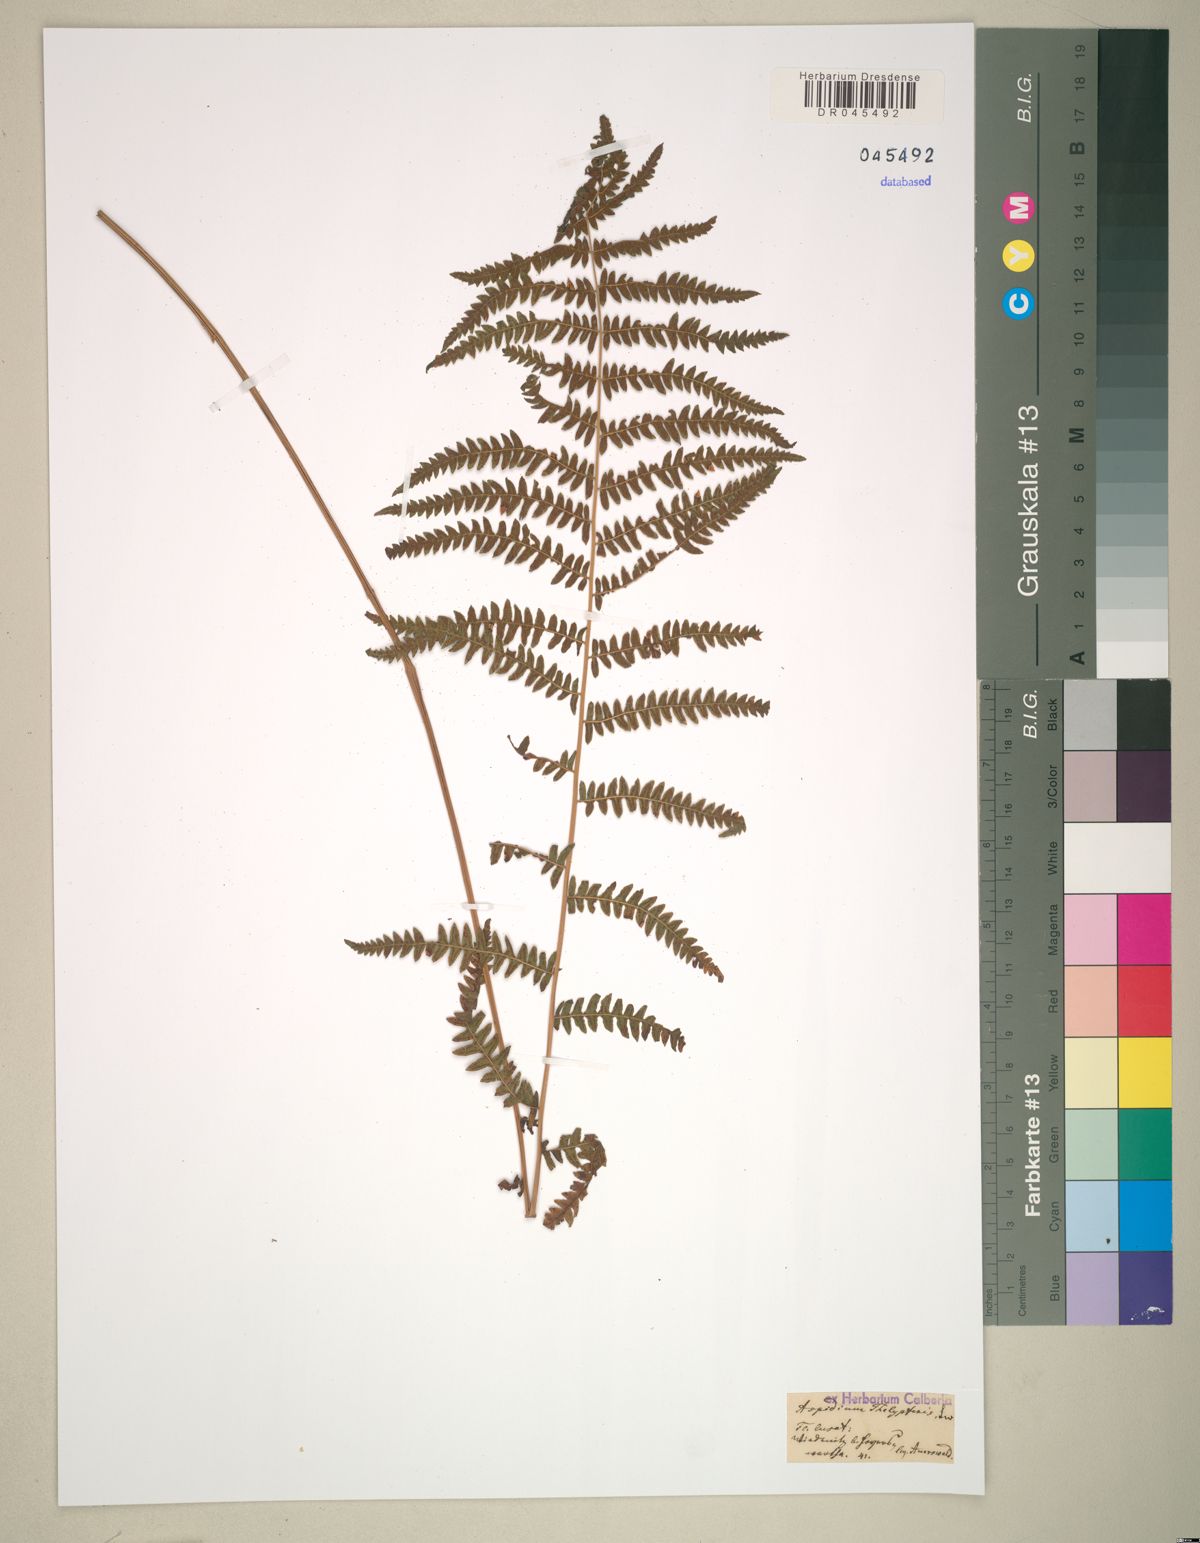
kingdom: Plantae
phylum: Tracheophyta
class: Polypodiopsida
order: Polypodiales
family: Thelypteridaceae
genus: Thelypteris
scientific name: Thelypteris palustris
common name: Marsh fern
